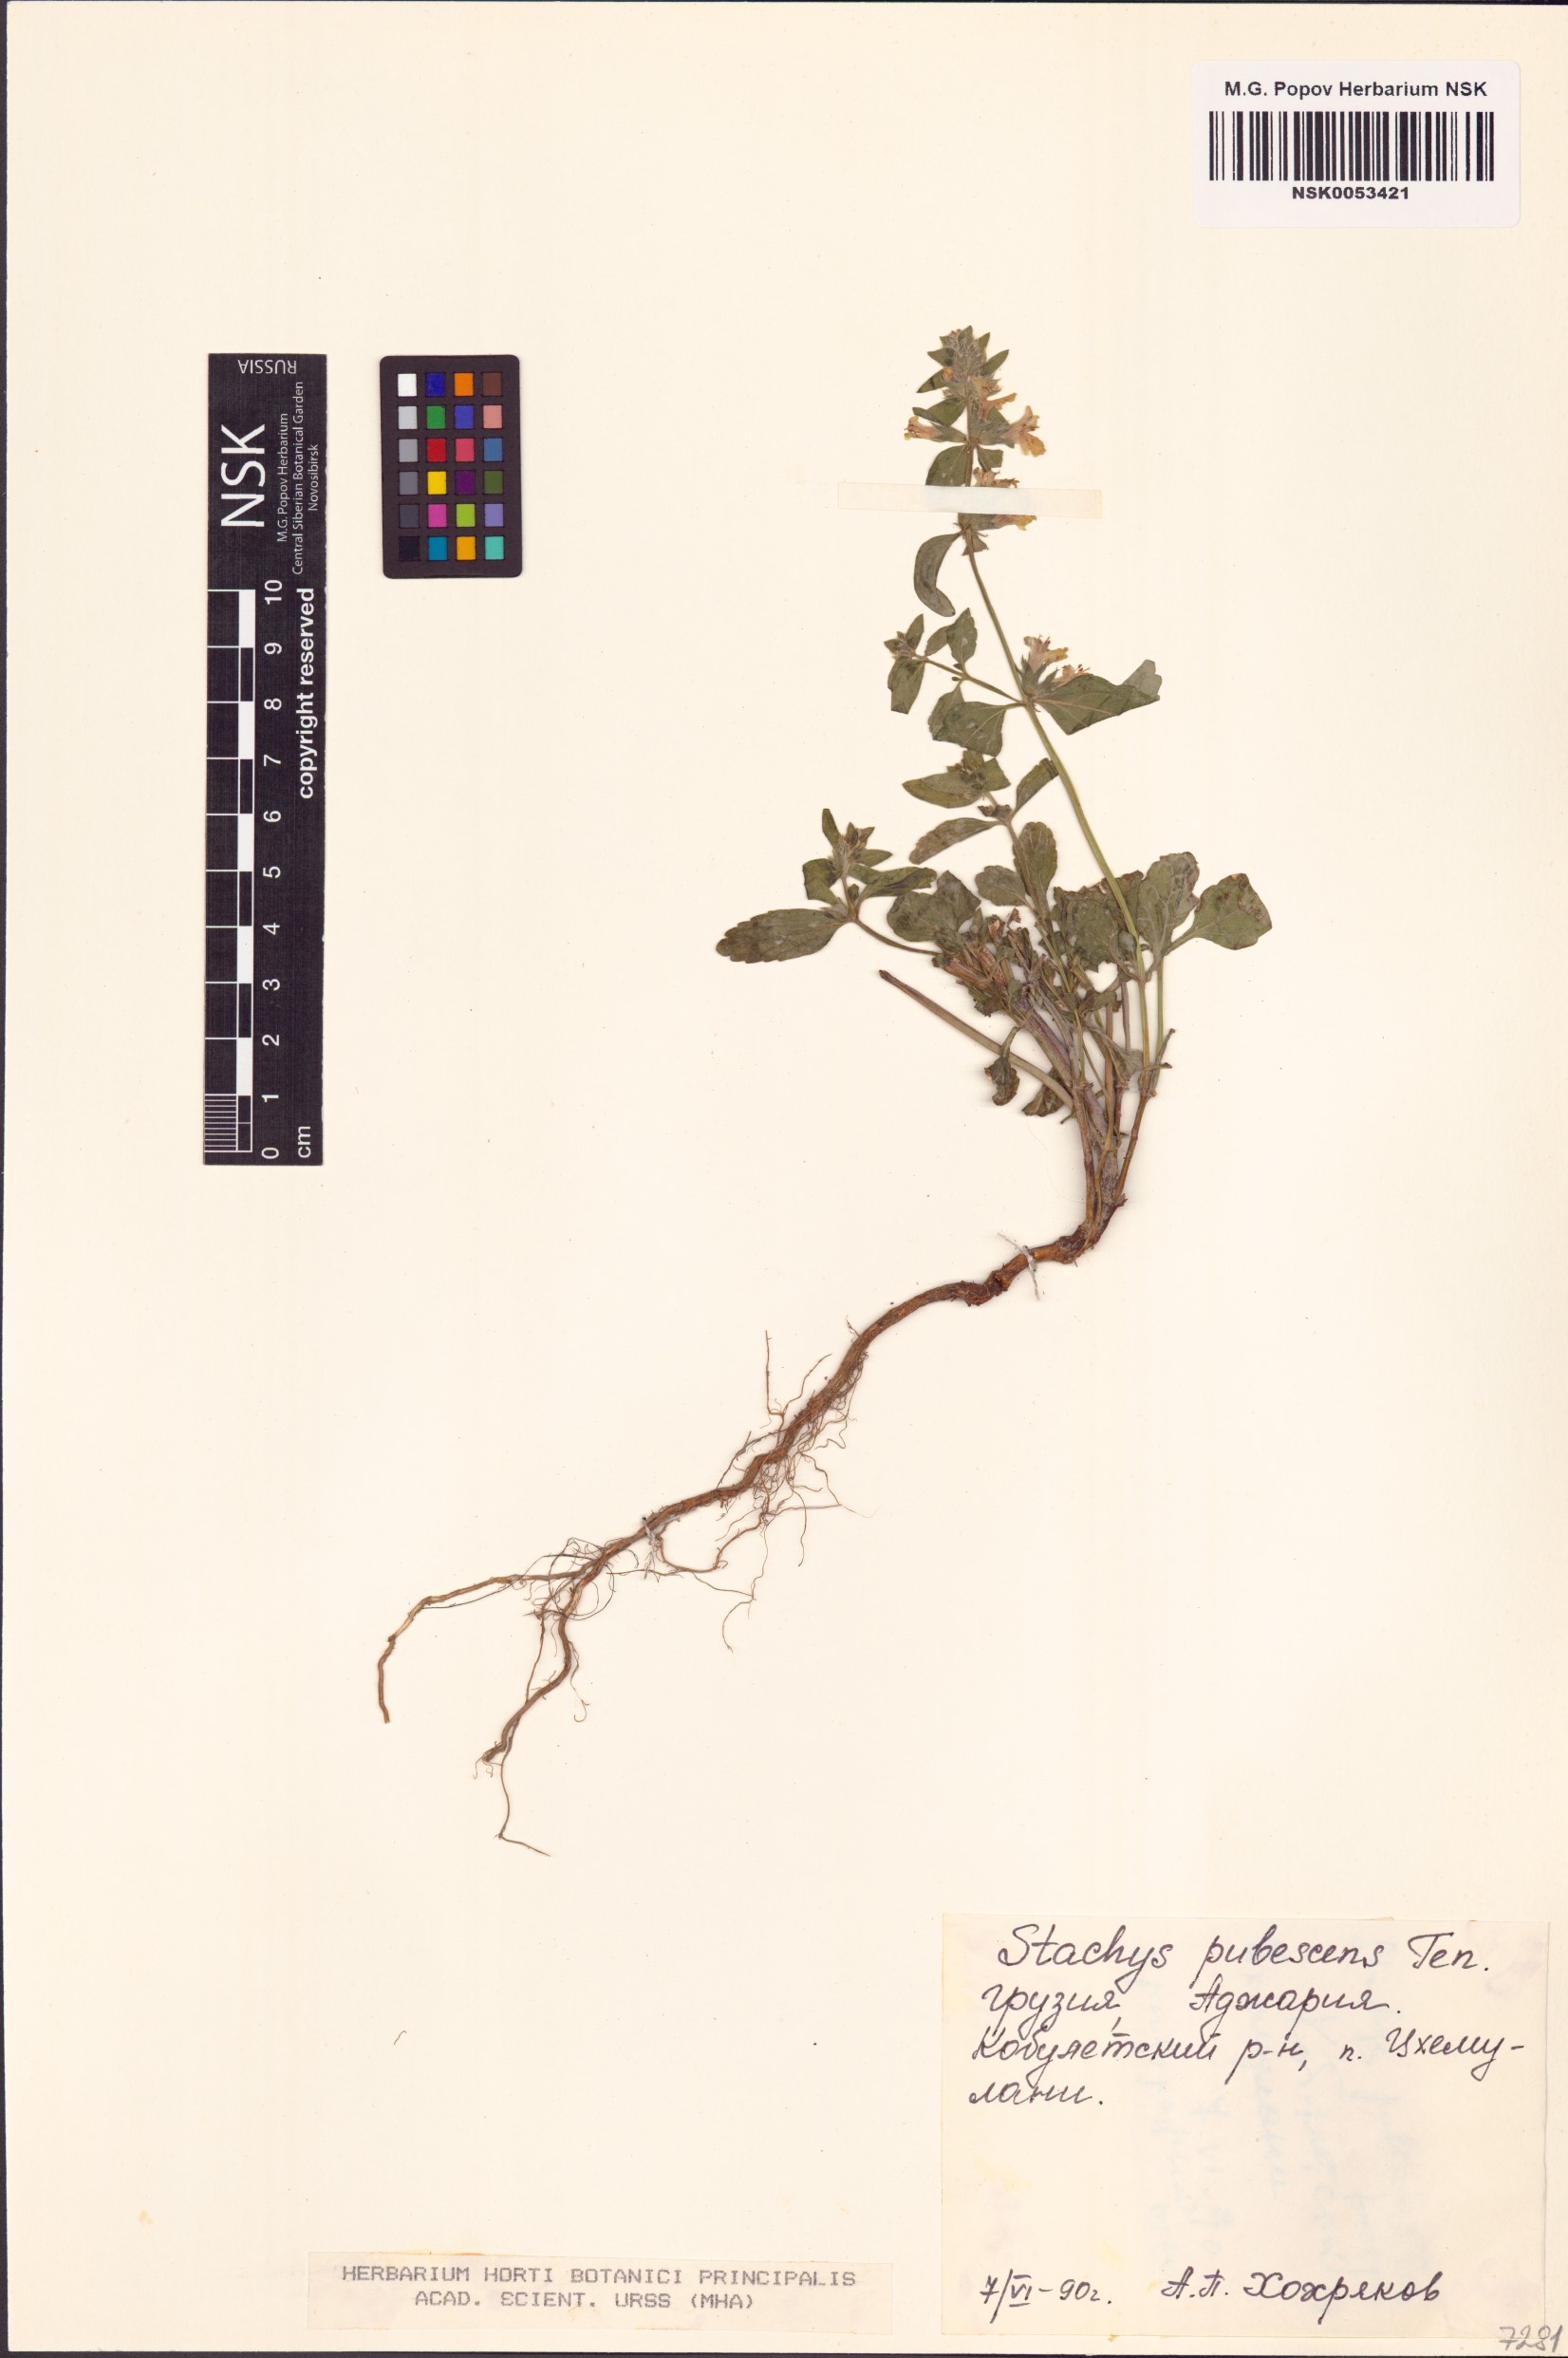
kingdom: Plantae
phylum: Tracheophyta
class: Magnoliopsida
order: Lamiales
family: Lamiaceae
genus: Stachys
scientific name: Stachys annua
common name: Annual yellow-woundwort
